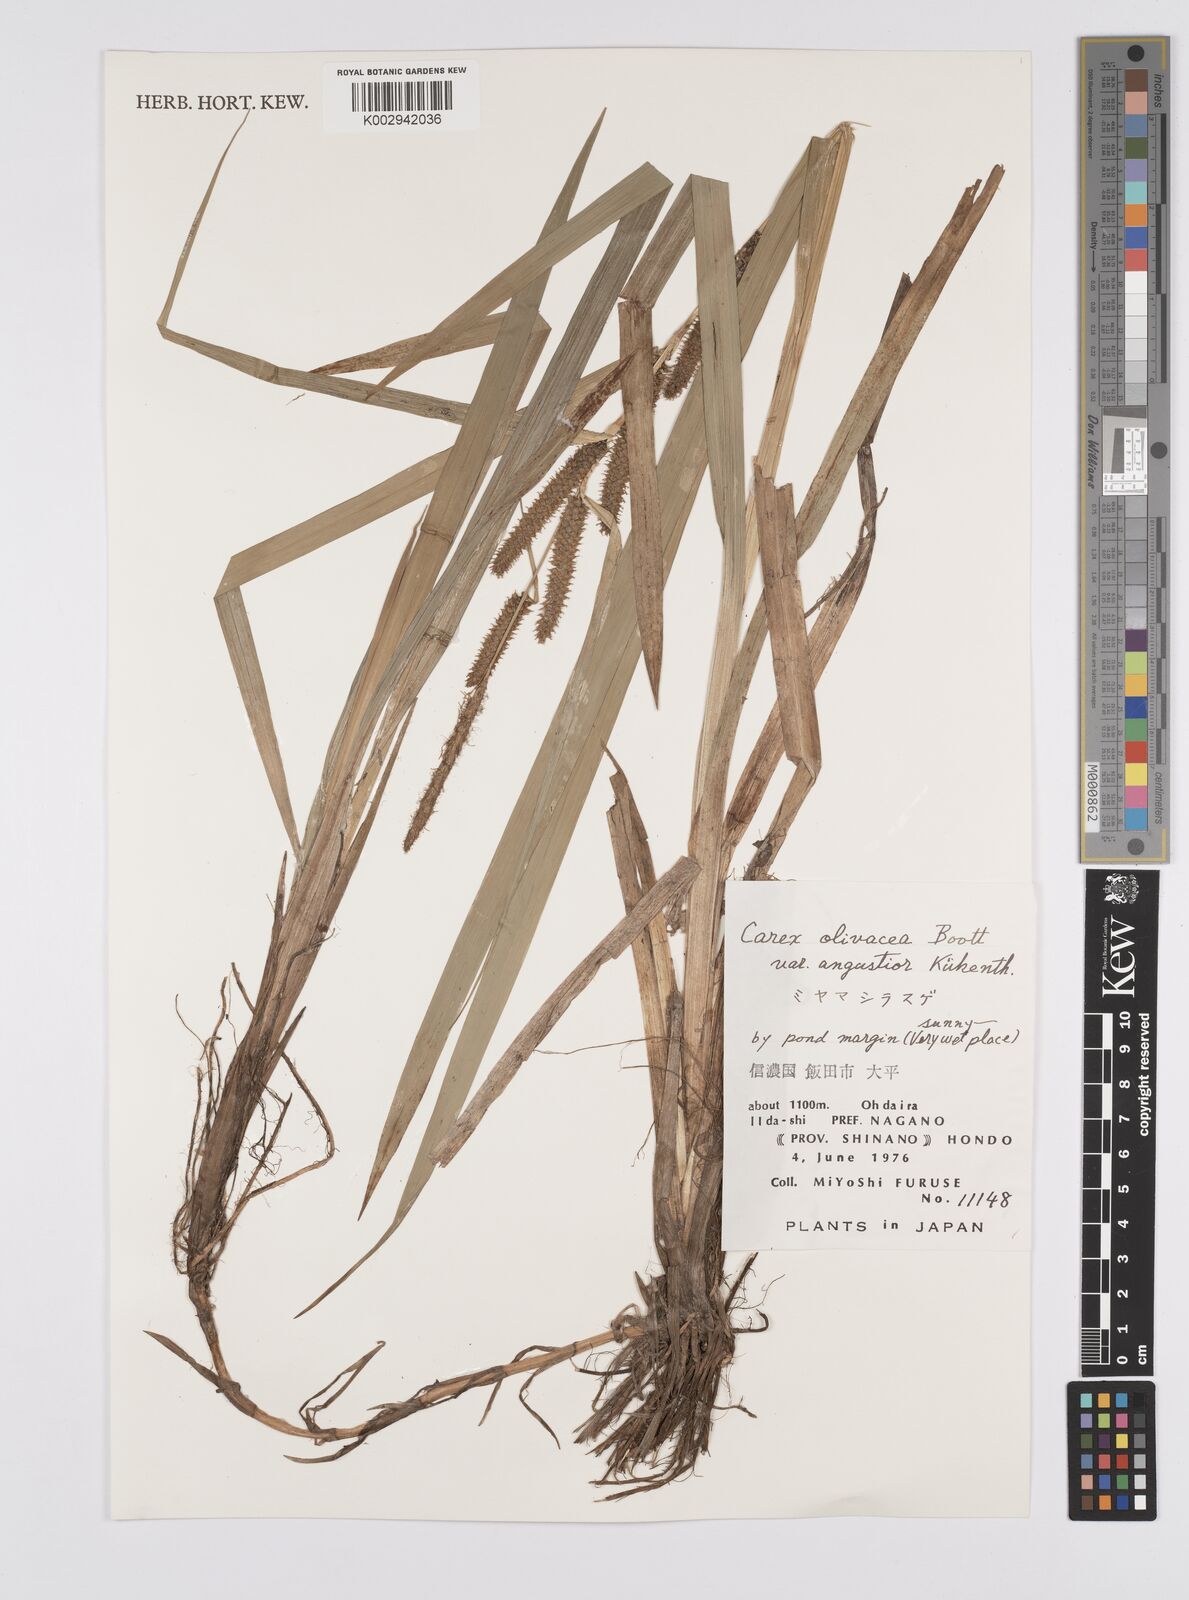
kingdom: Plantae
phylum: Tracheophyta
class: Liliopsida
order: Poales
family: Cyperaceae
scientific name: Cyperaceae
